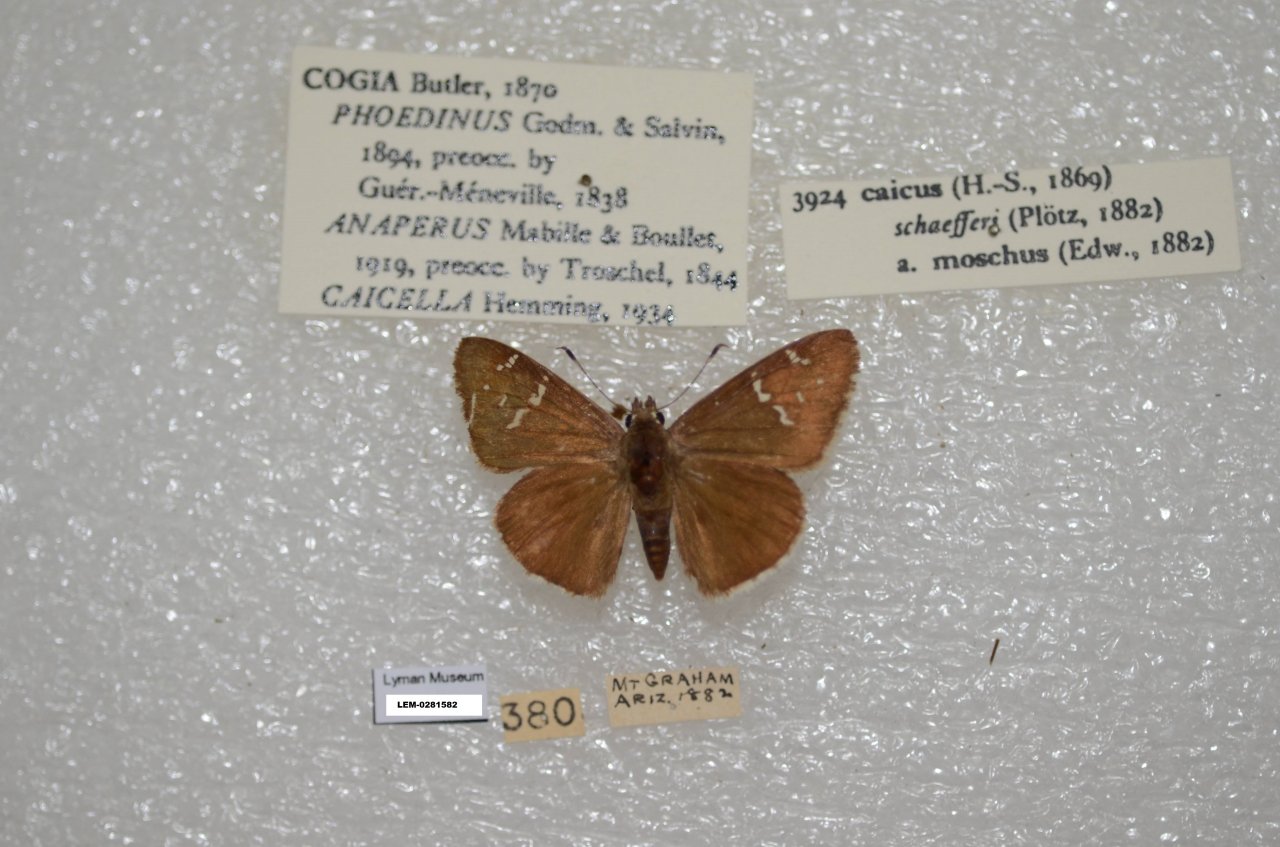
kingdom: Animalia
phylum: Arthropoda
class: Insecta
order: Lepidoptera
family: Hesperiidae
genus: Caicella
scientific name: Caicella caicus
